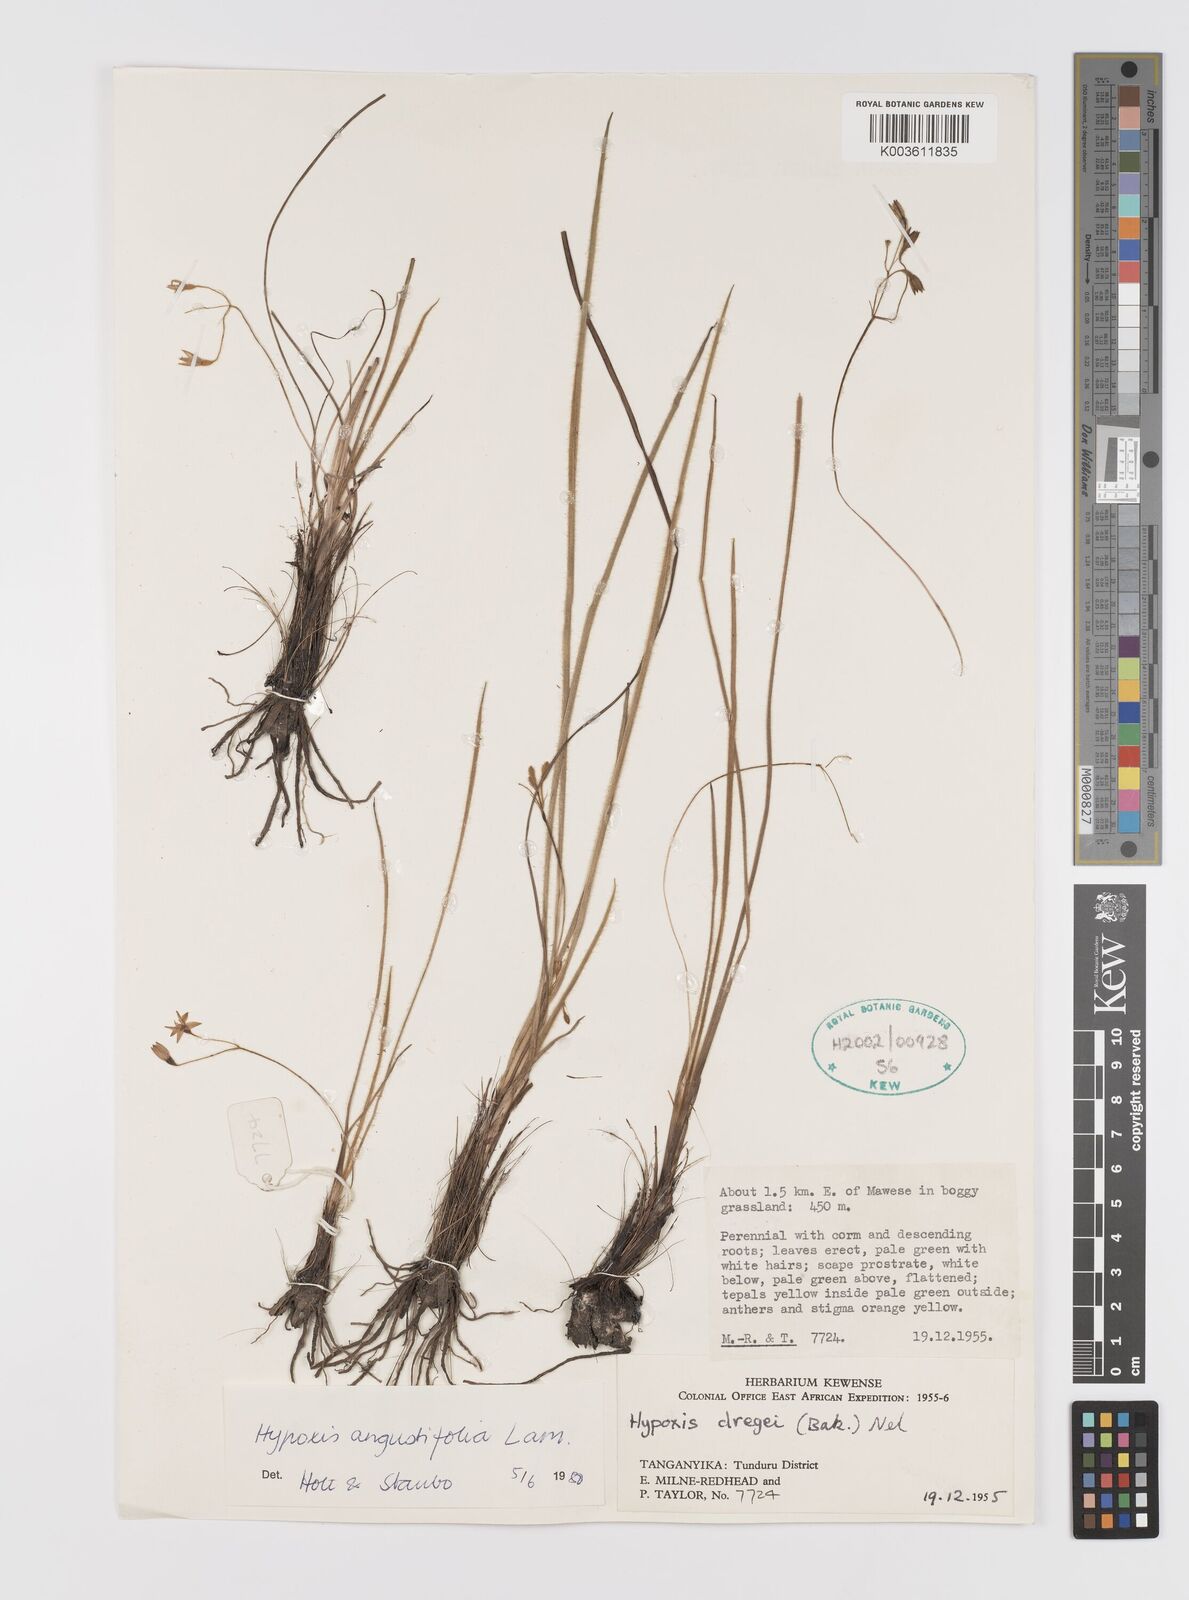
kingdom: Plantae
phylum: Tracheophyta
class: Liliopsida
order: Asparagales
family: Hypoxidaceae
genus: Hypoxis
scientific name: Hypoxis angustifolia
